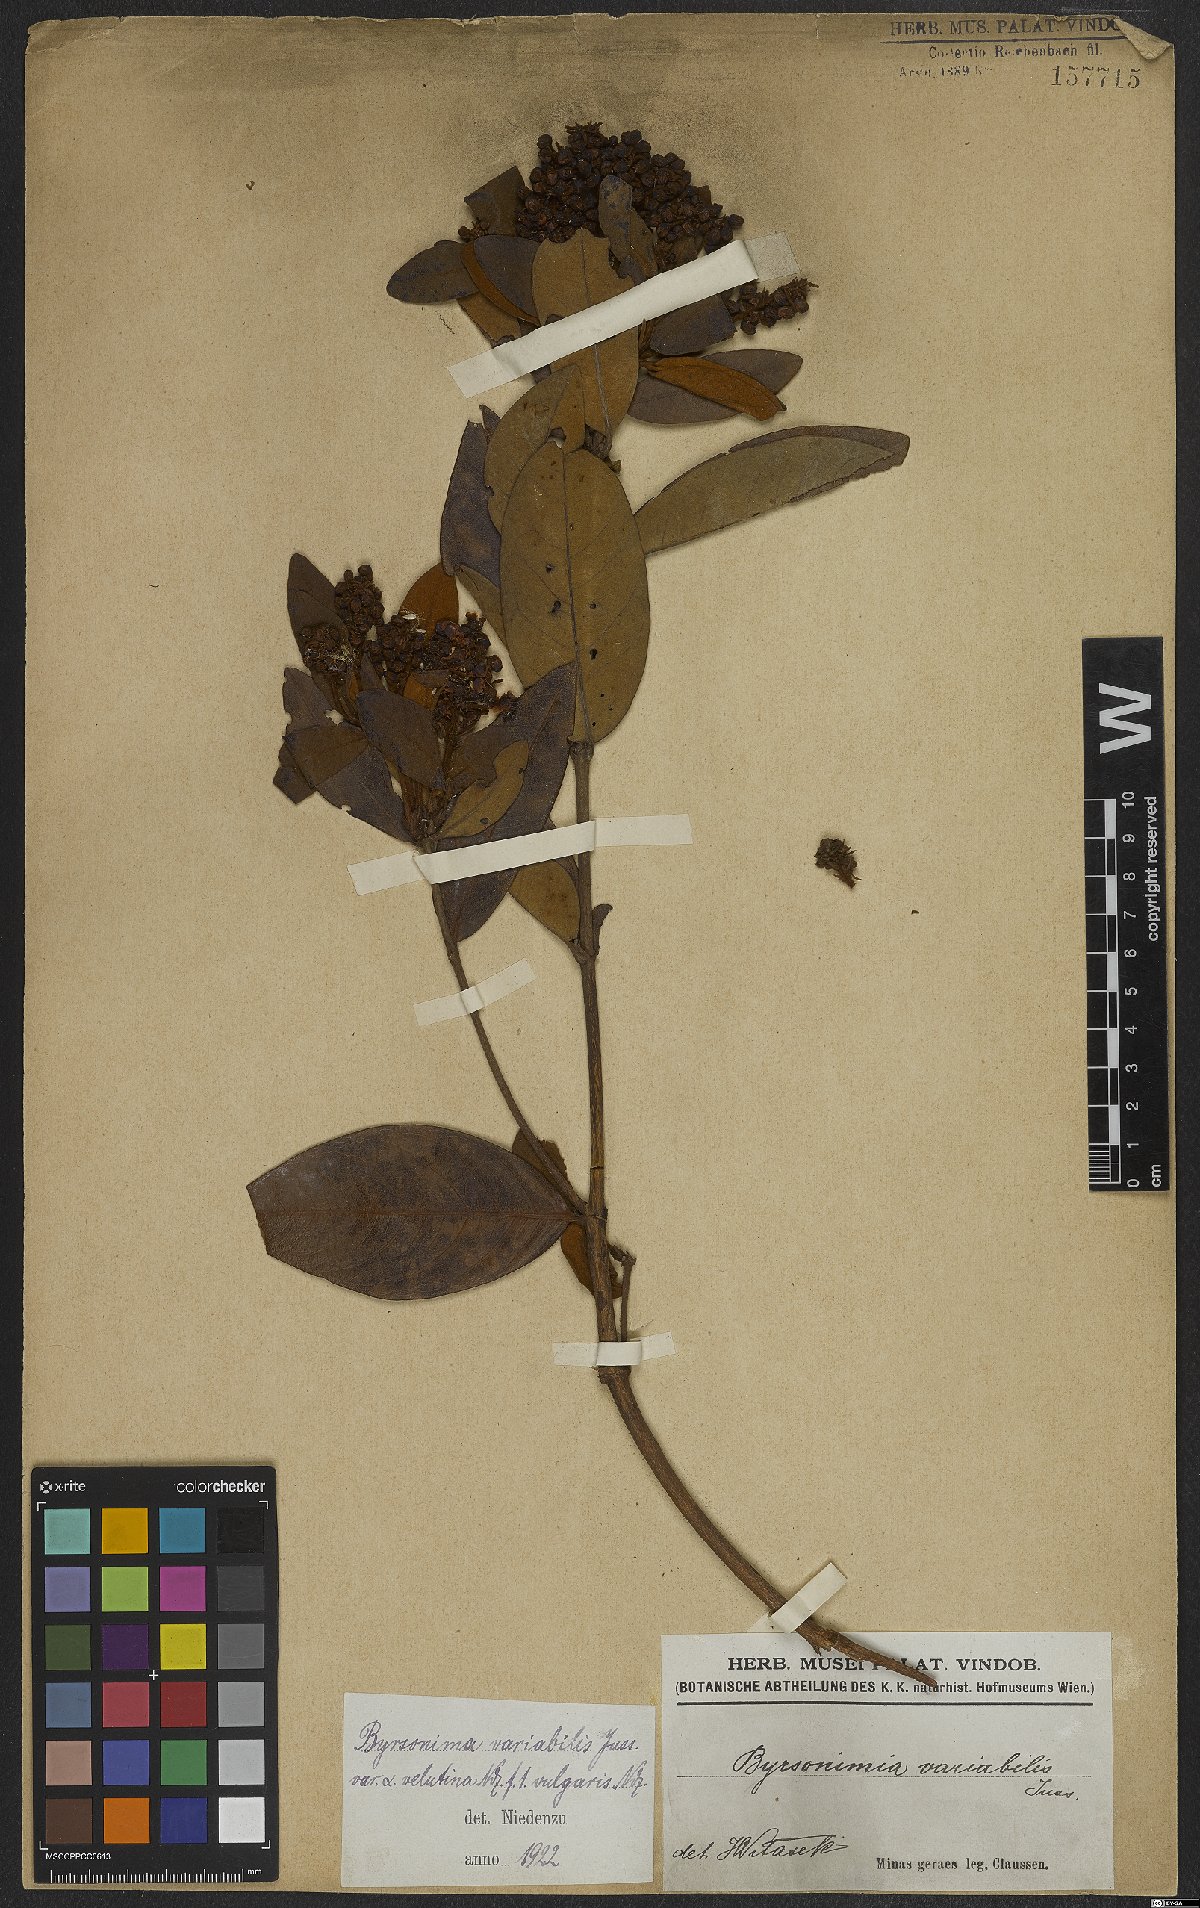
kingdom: Plantae
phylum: Tracheophyta
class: Magnoliopsida
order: Malpighiales
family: Malpighiaceae
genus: Byrsonima
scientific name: Byrsonima variabilis
